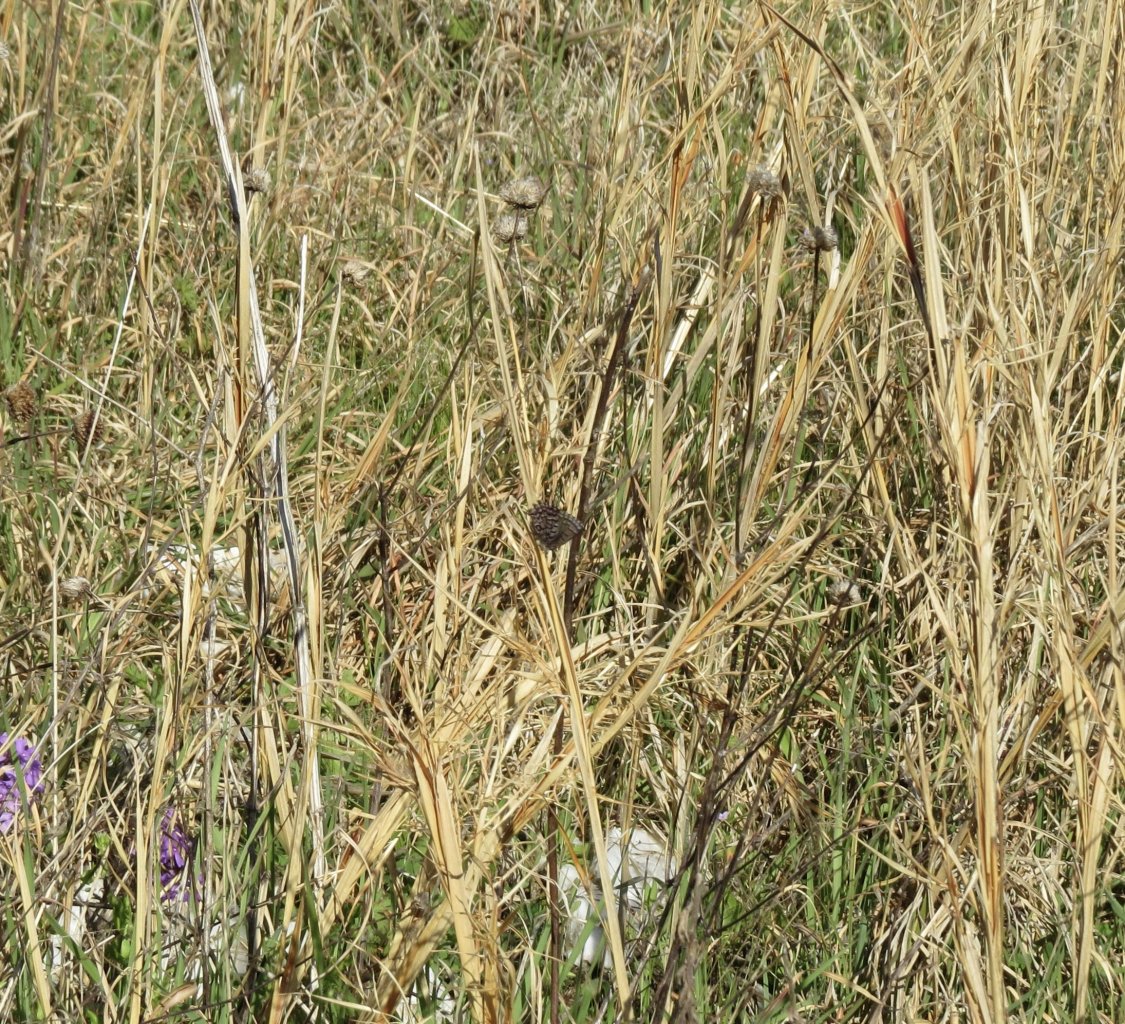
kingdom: Animalia
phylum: Arthropoda
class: Insecta
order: Lepidoptera
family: Lycaenidae
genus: Incisalia
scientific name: Incisalia niphon
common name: Eastern Pine Elfin
